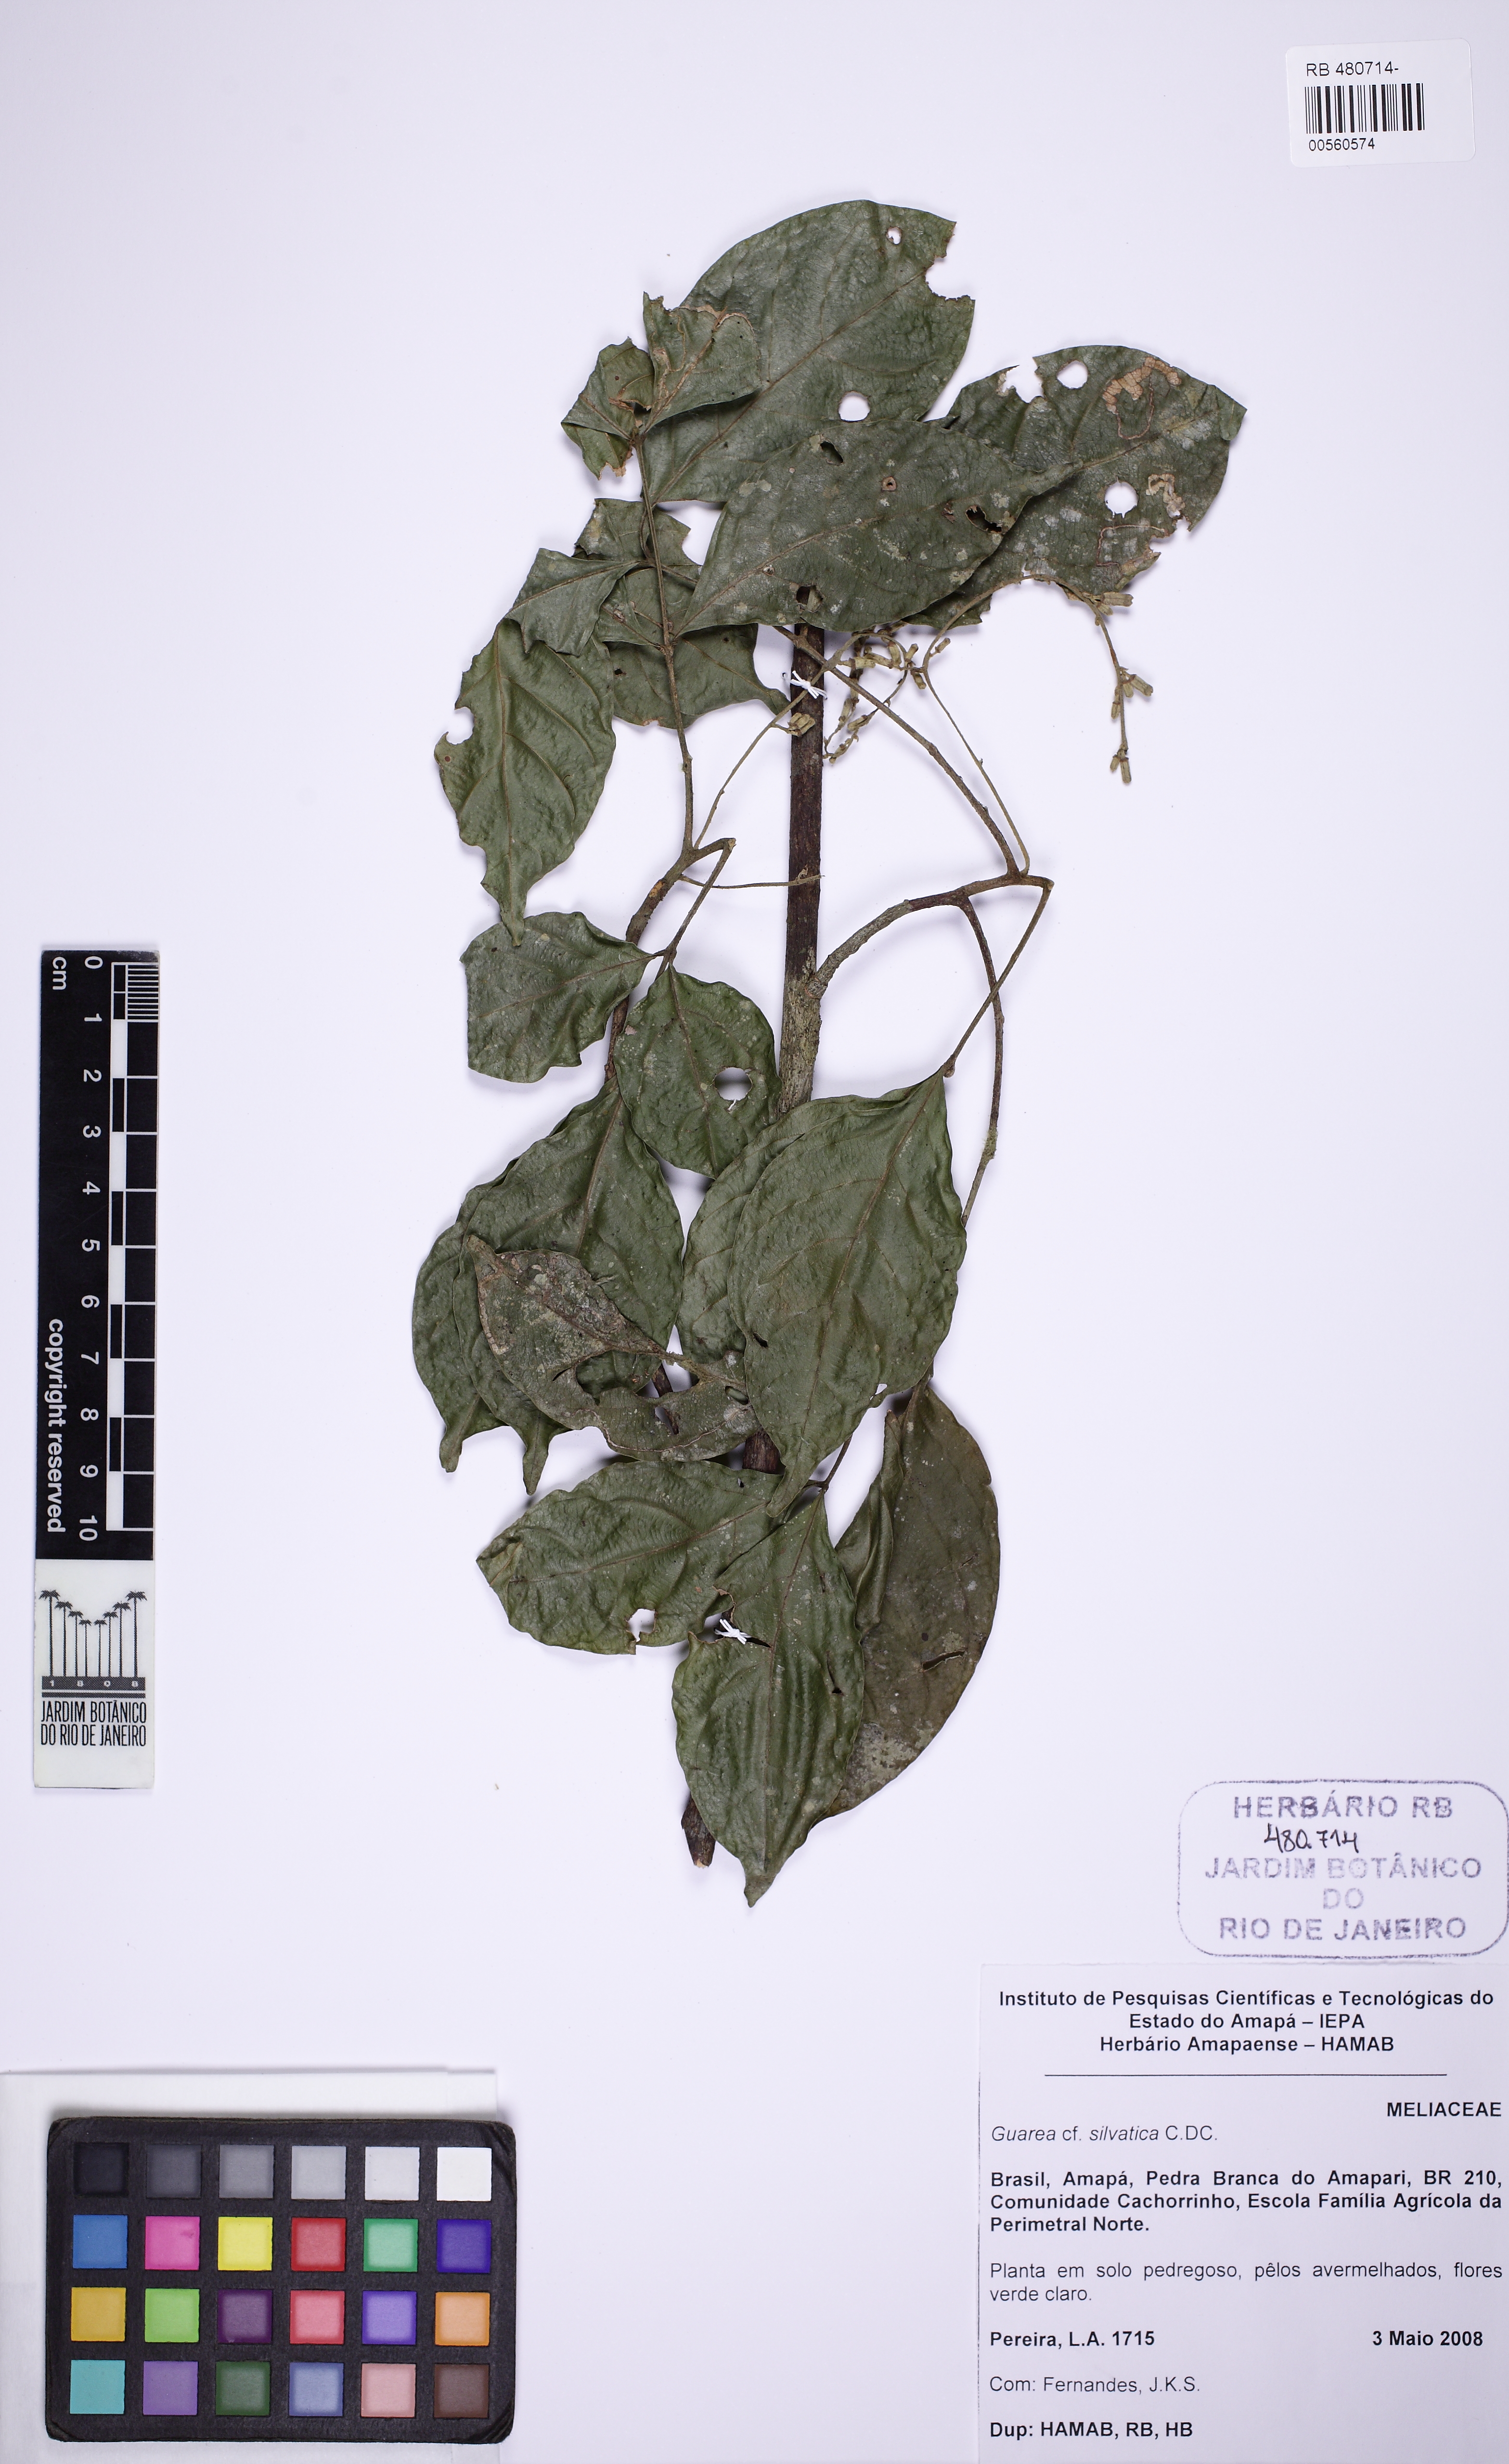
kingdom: Plantae
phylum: Tracheophyta
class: Magnoliopsida
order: Sapindales
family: Meliaceae
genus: Guarea
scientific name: Guarea silvatica
